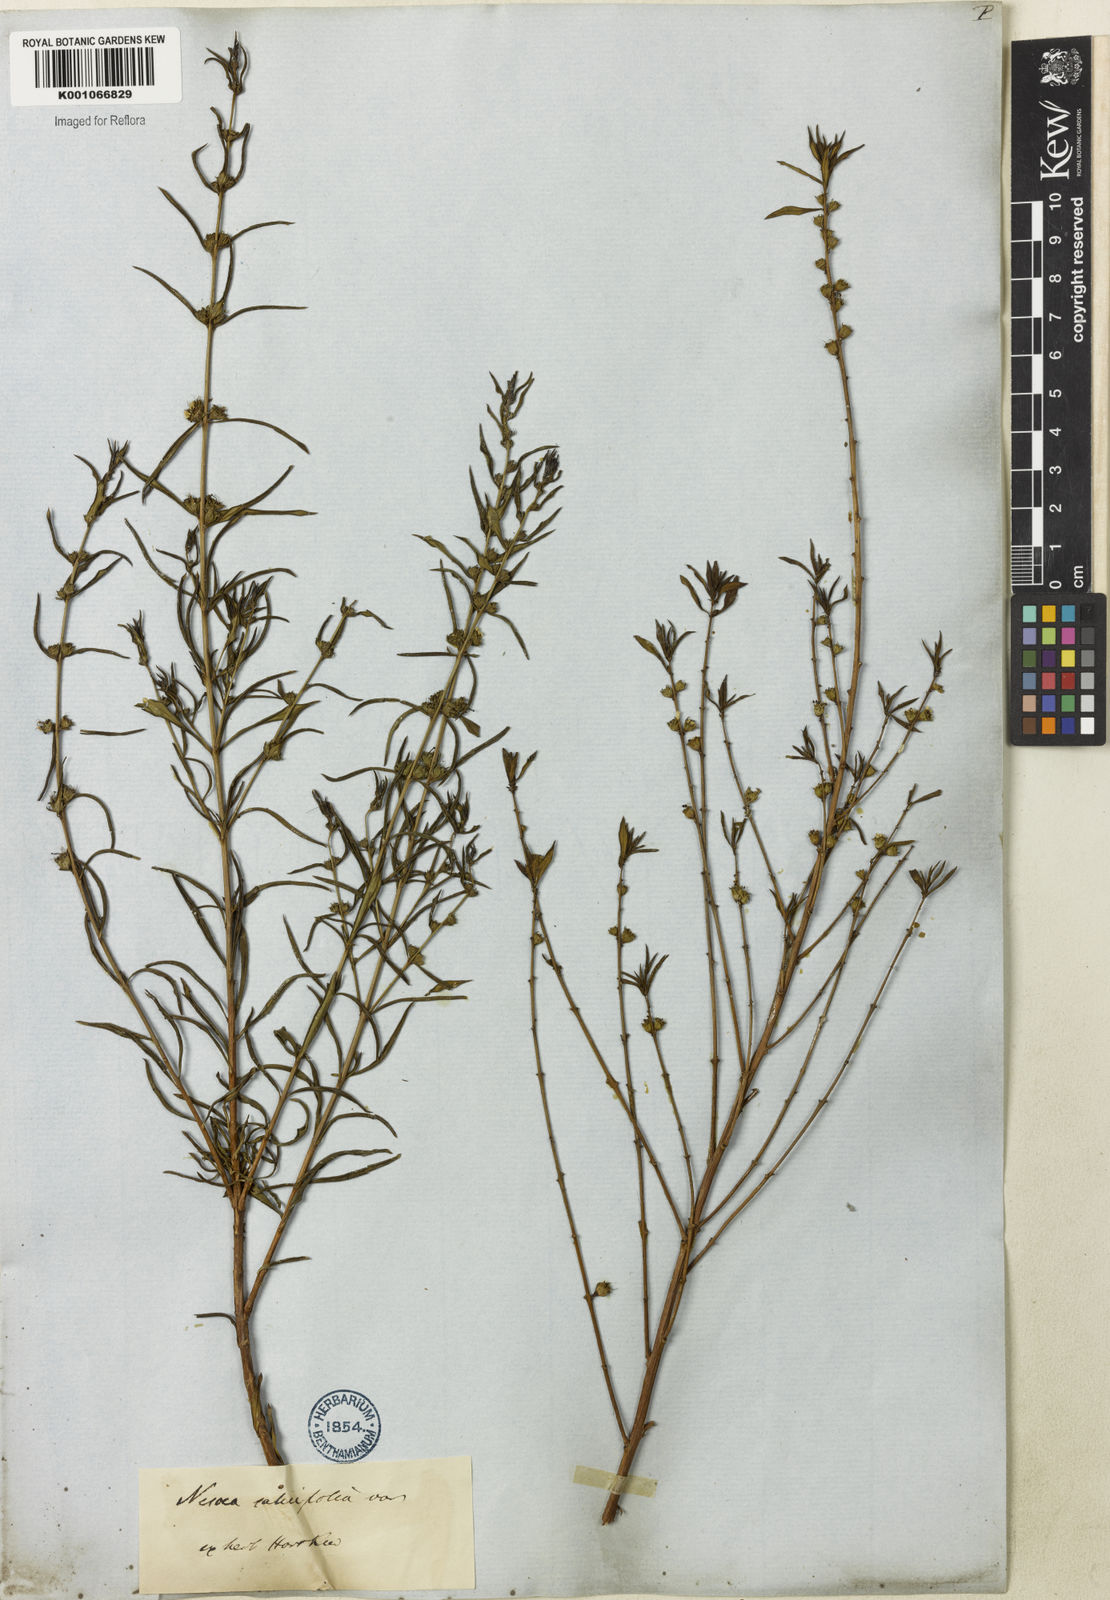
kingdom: Plantae
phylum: Tracheophyta
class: Magnoliopsida
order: Myrtales
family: Lythraceae
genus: Heimia
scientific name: Heimia apetala
